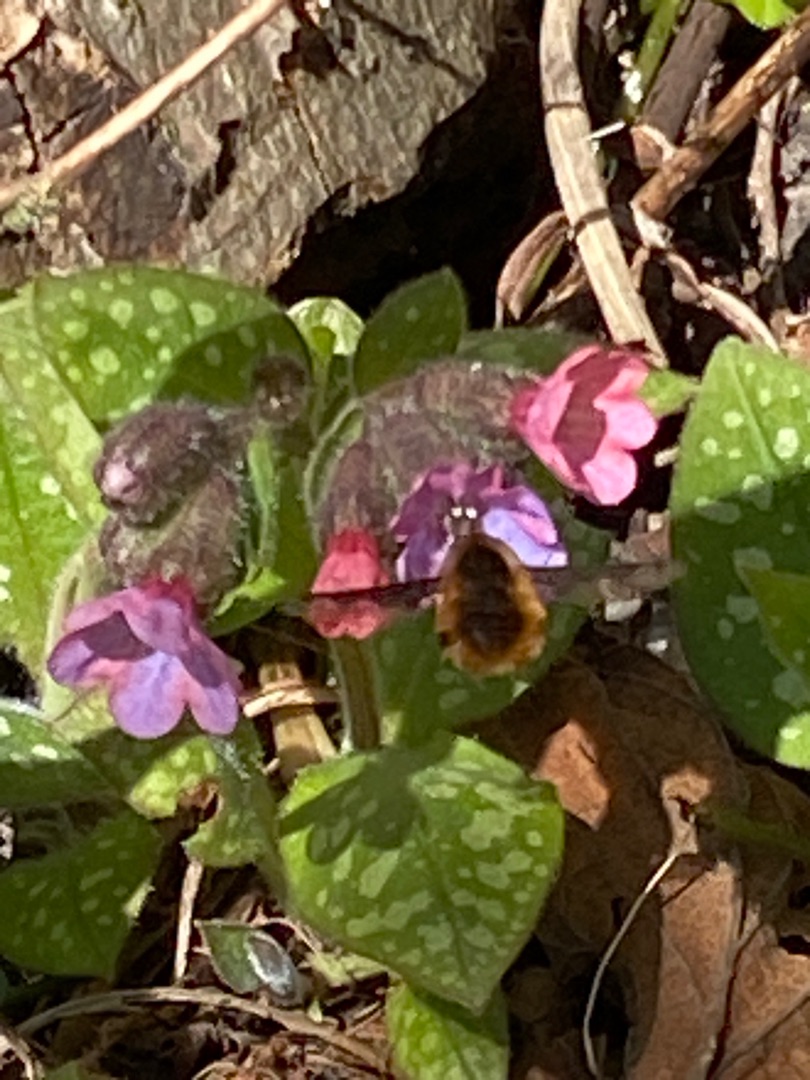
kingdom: Animalia
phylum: Arthropoda
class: Insecta
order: Diptera
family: Bombyliidae
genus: Bombylius
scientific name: Bombylius major
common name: Stor humleflue
